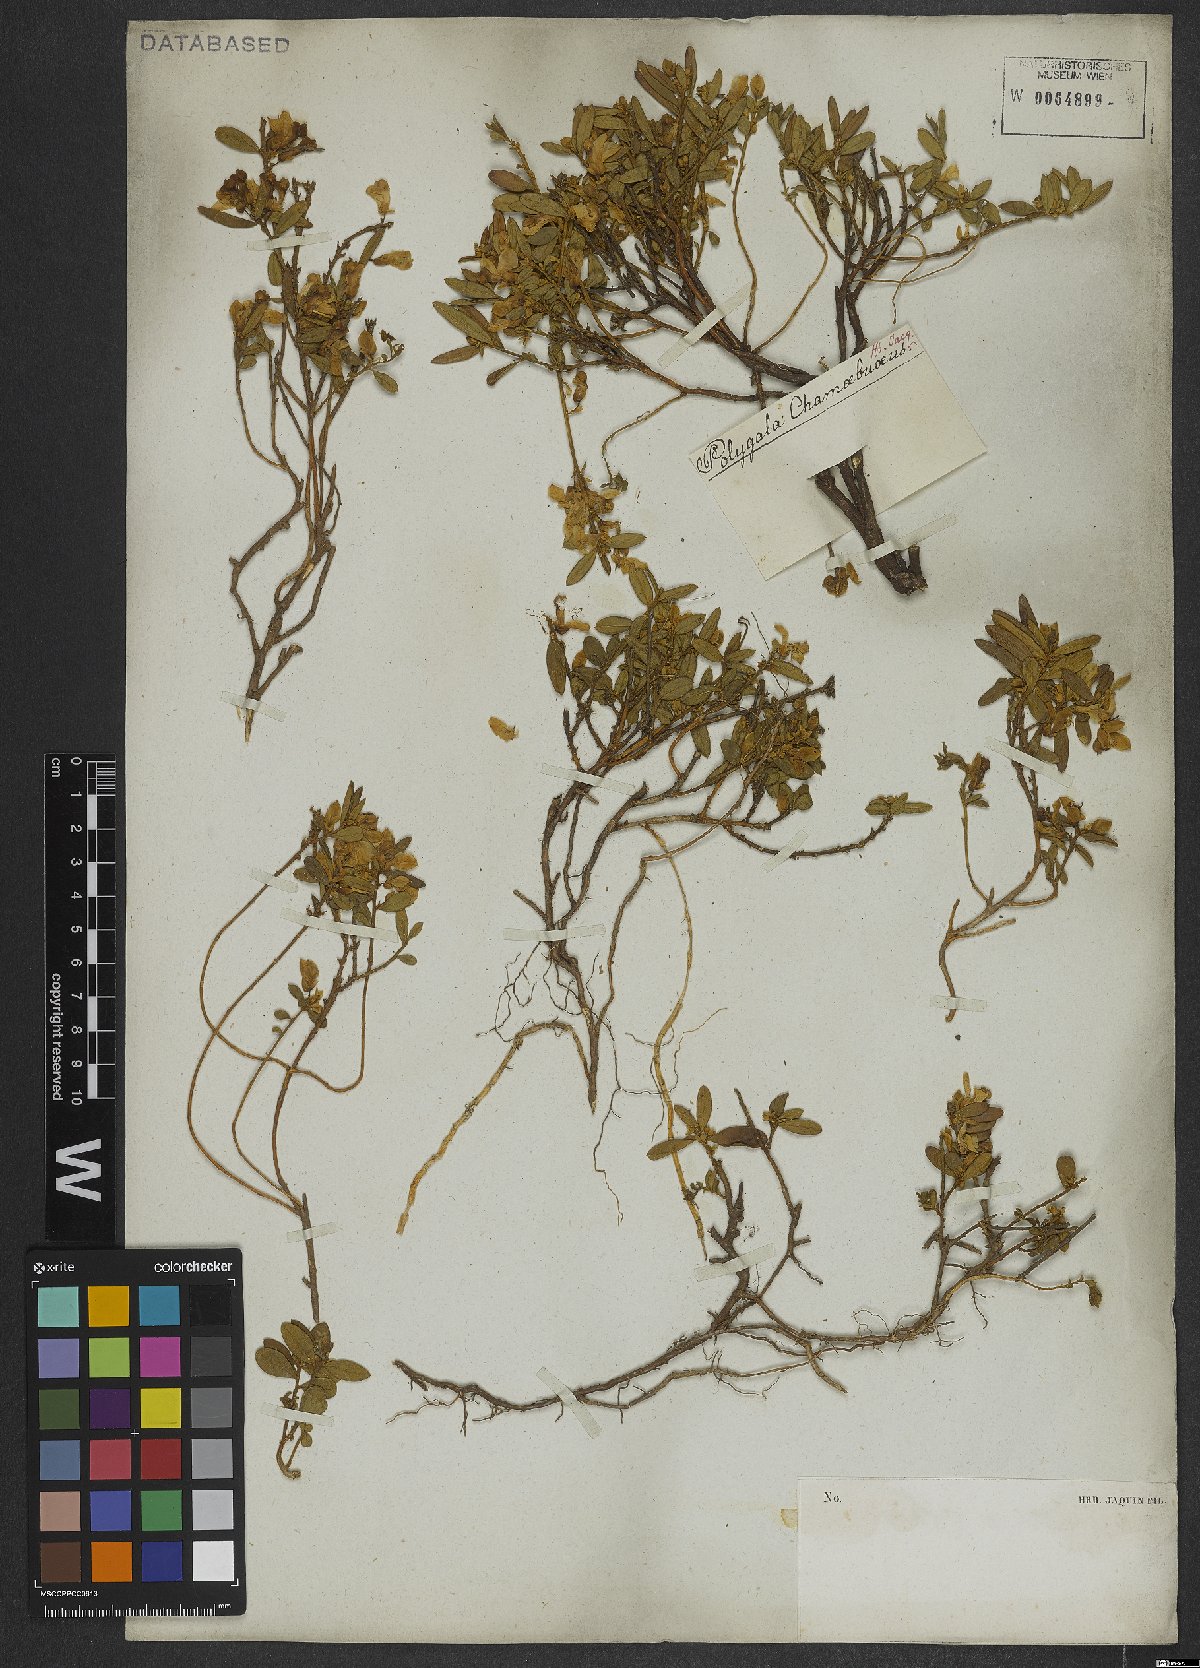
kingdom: Plantae
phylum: Tracheophyta
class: Magnoliopsida
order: Fabales
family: Polygalaceae
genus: Polygaloides
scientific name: Polygaloides chamaebuxus
